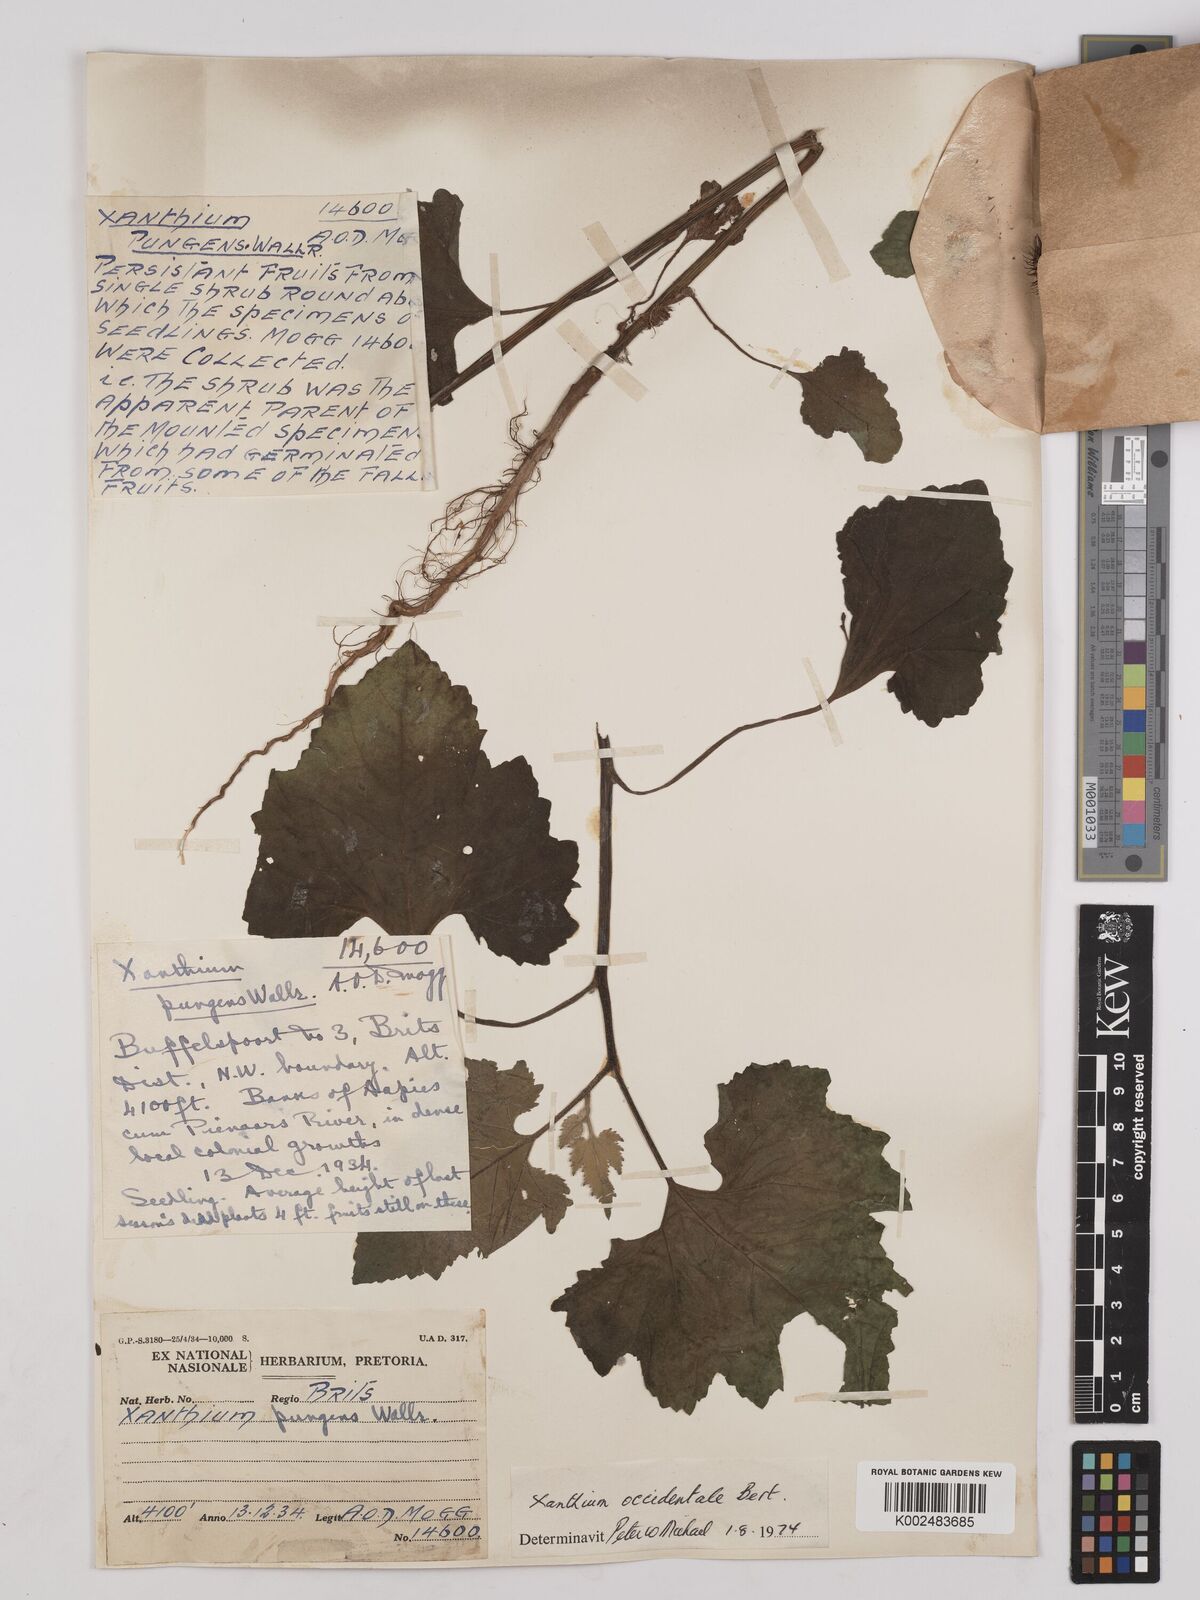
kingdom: Plantae
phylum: Tracheophyta
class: Magnoliopsida
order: Asterales
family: Asteraceae
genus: Xanthium
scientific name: Xanthium occidentale
